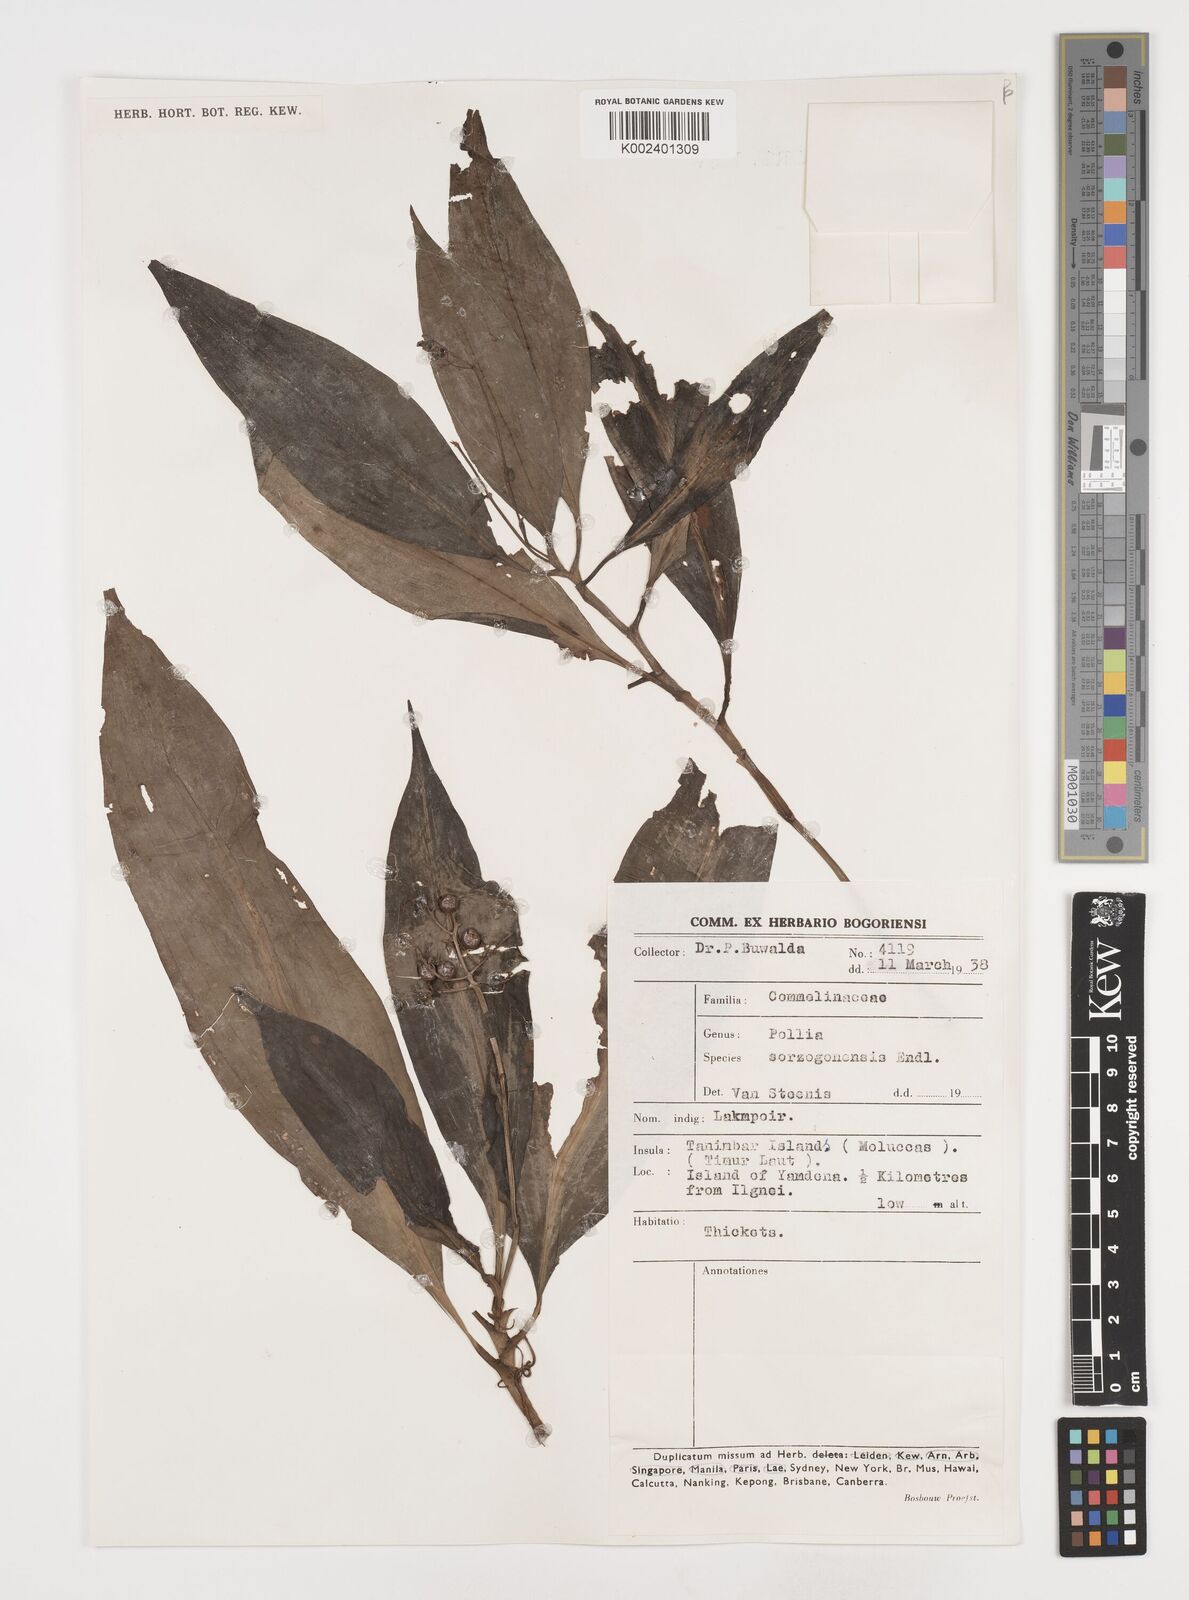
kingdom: Plantae
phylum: Tracheophyta
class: Liliopsida
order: Commelinales
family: Commelinaceae
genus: Pollia
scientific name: Pollia secundiflora
